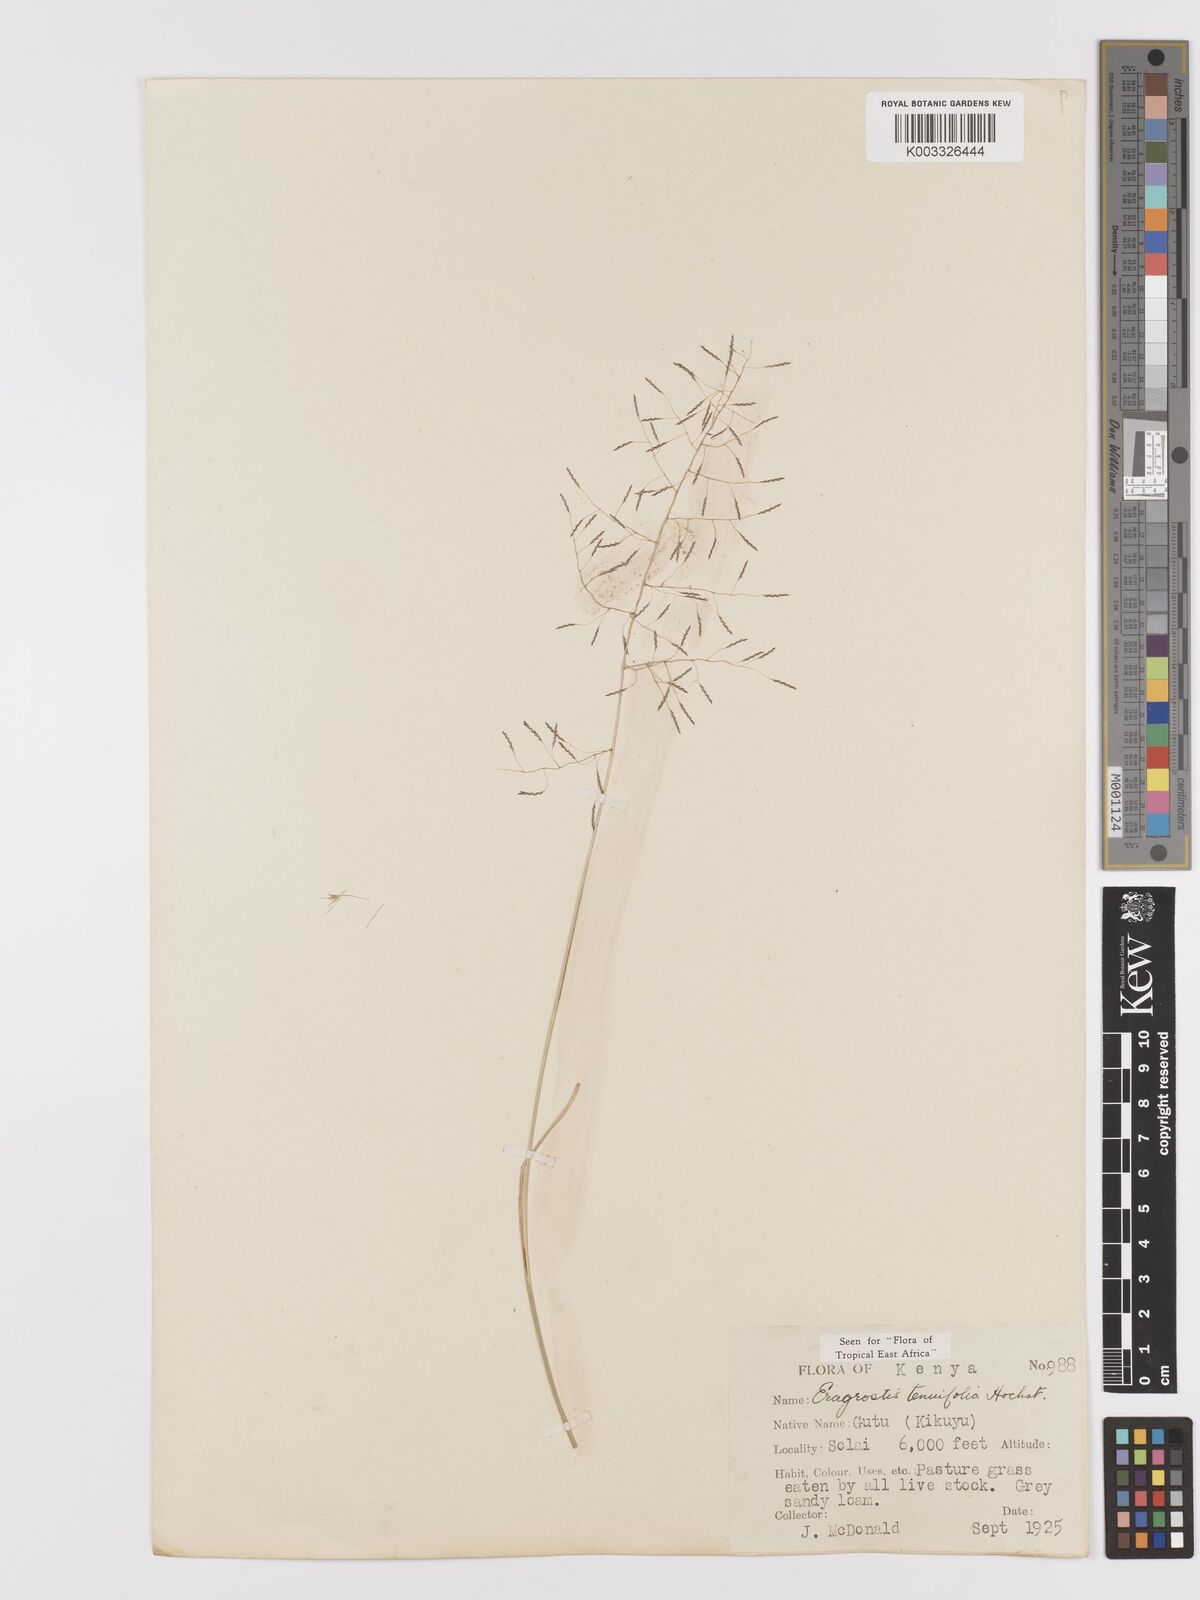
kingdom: Plantae
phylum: Tracheophyta
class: Liliopsida
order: Poales
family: Poaceae
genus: Eragrostis
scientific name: Eragrostis tenuifolia
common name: Elastic grass
